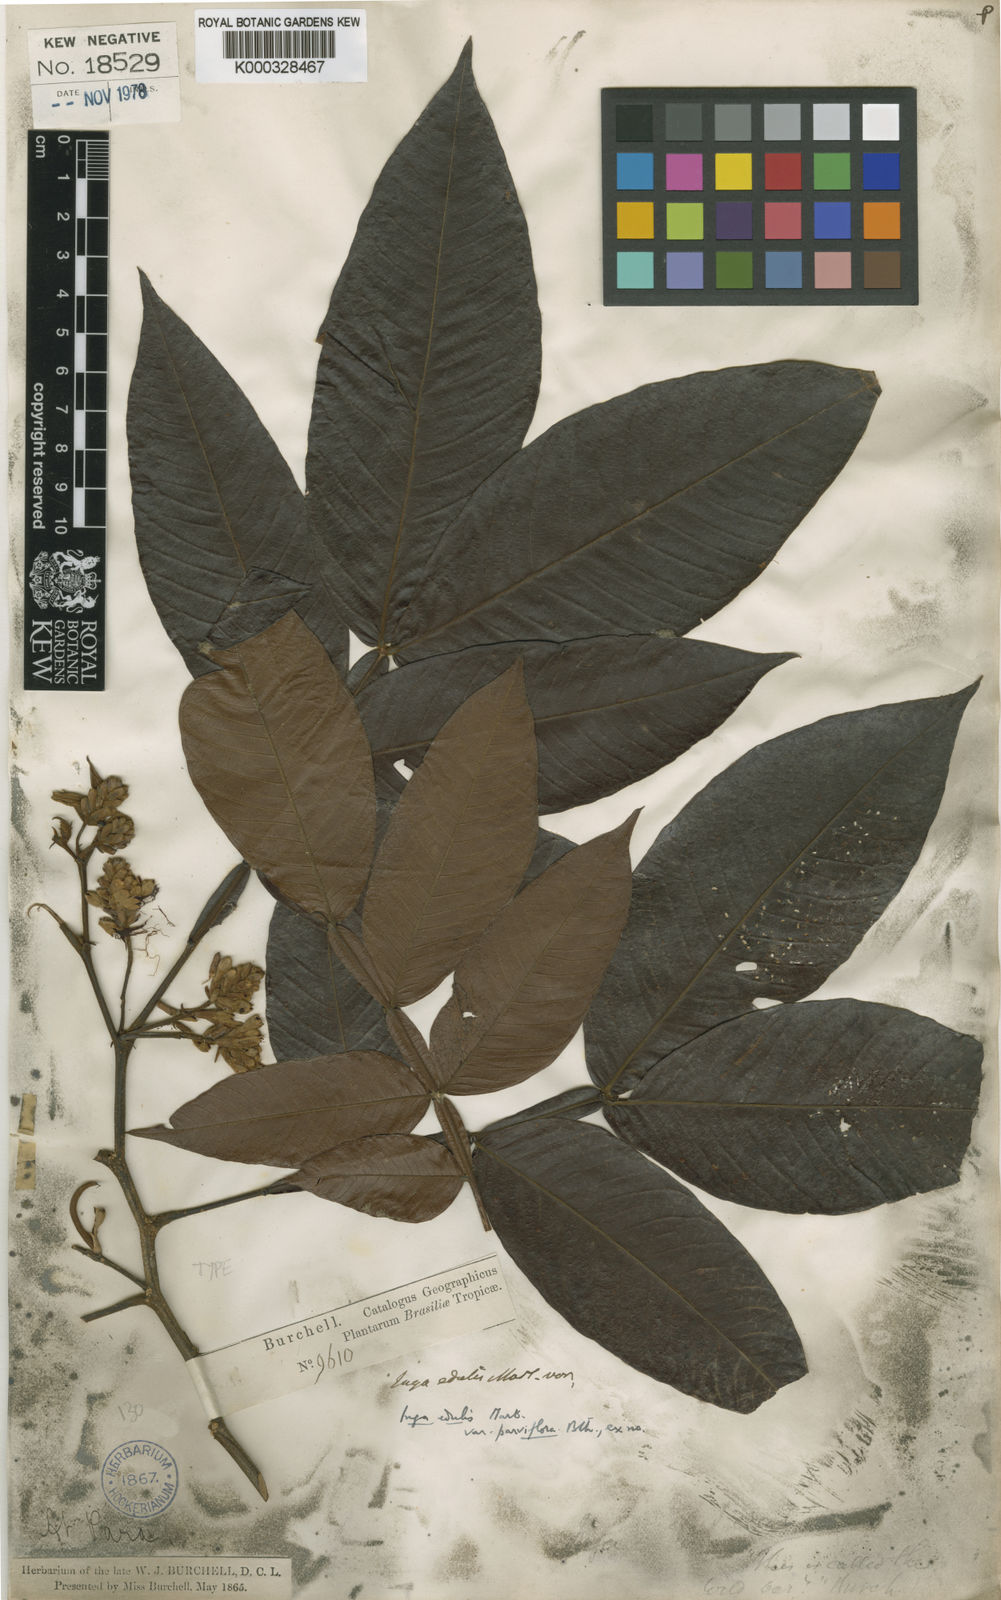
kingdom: Plantae
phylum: Tracheophyta
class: Magnoliopsida
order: Fabales
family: Fabaceae
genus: Inga
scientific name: Inga edulis
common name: Ice cream bean
